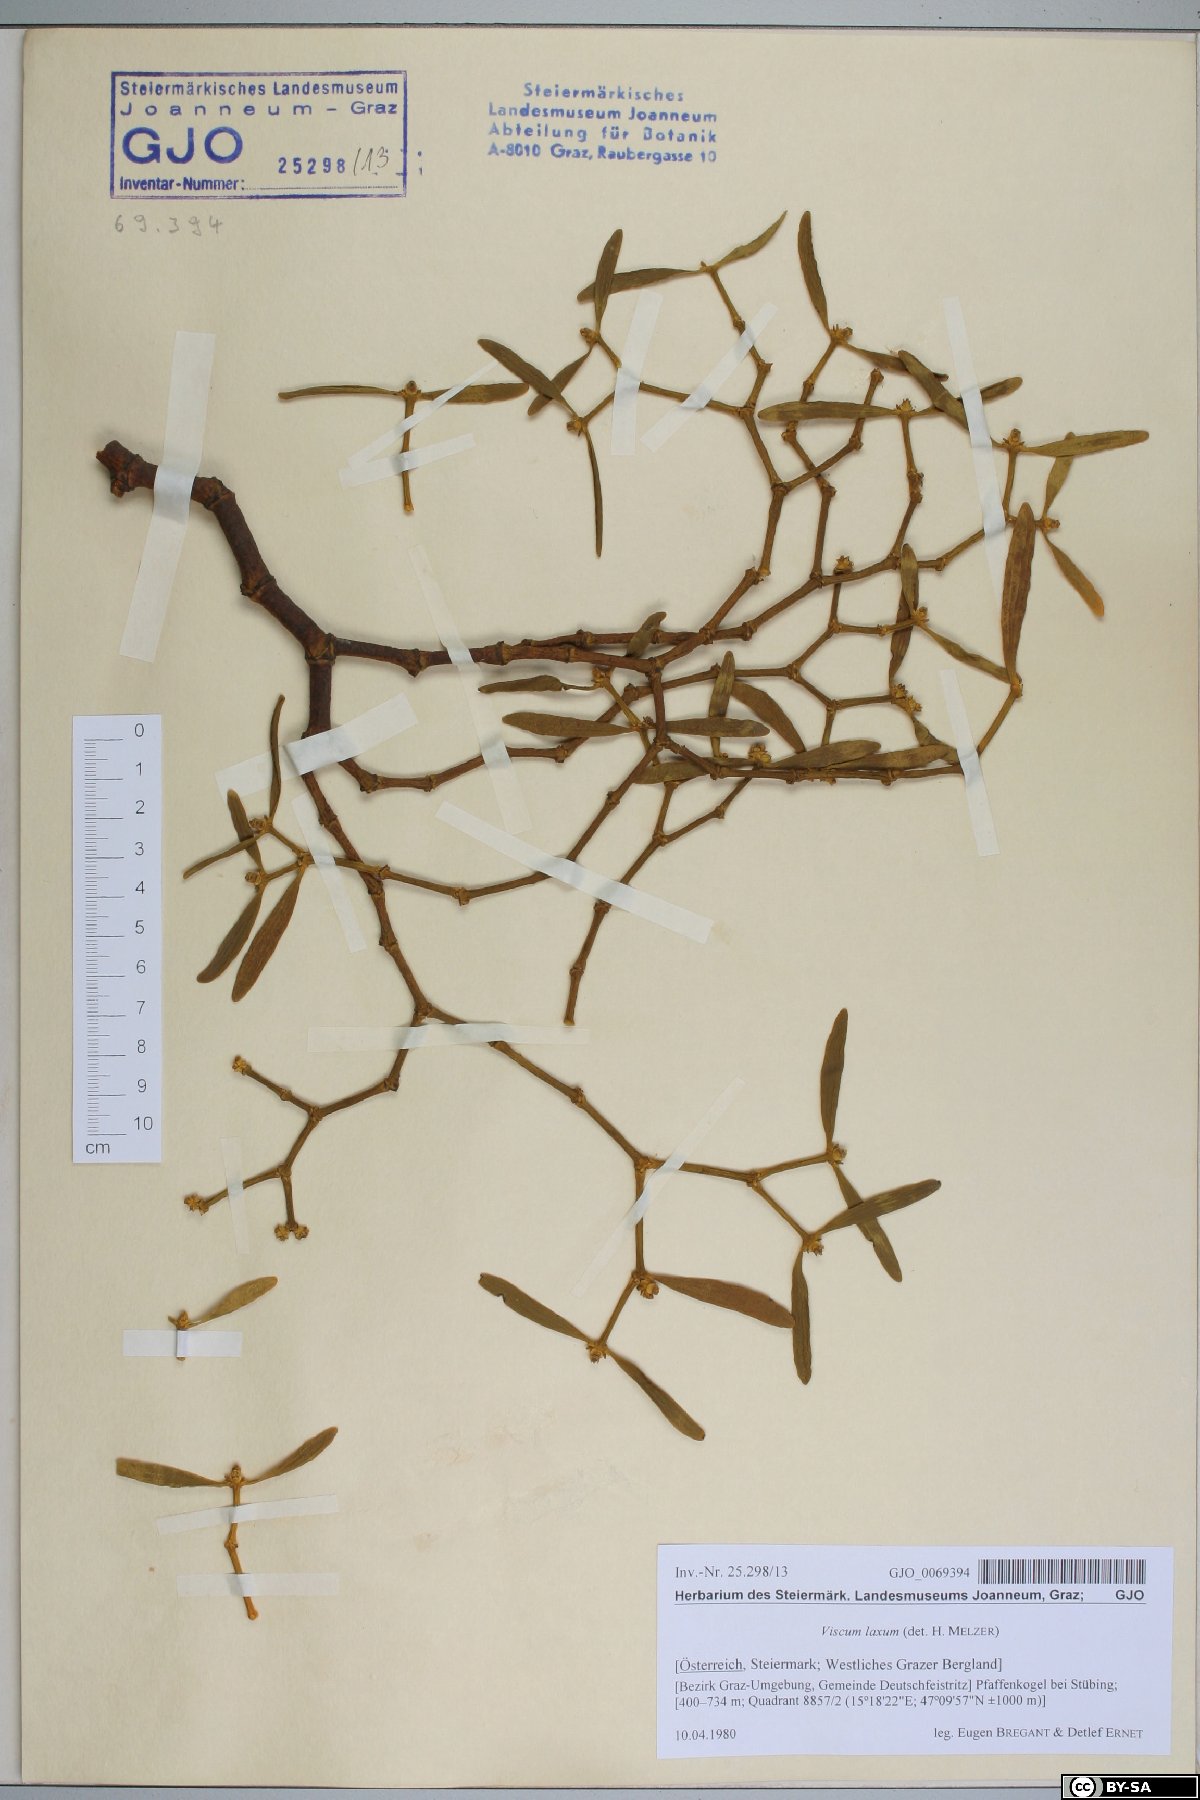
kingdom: Plantae
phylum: Tracheophyta
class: Magnoliopsida
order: Santalales
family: Viscaceae
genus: Viscum
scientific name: Viscum laxum
